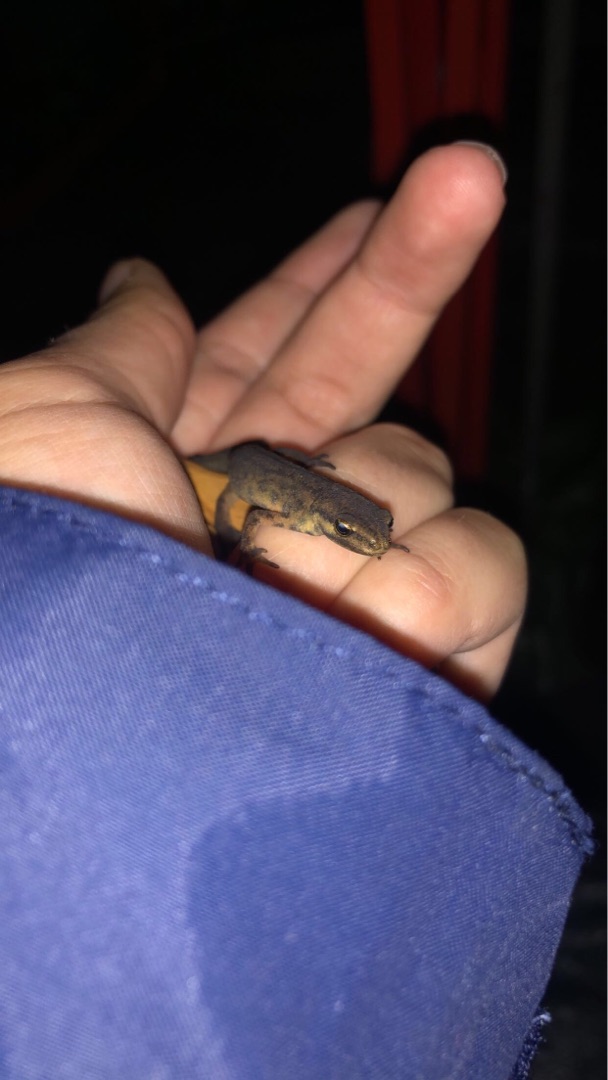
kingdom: Animalia
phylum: Chordata
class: Amphibia
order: Caudata
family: Salamandridae
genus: Lissotriton
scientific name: Lissotriton vulgaris
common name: Lille vandsalamander
